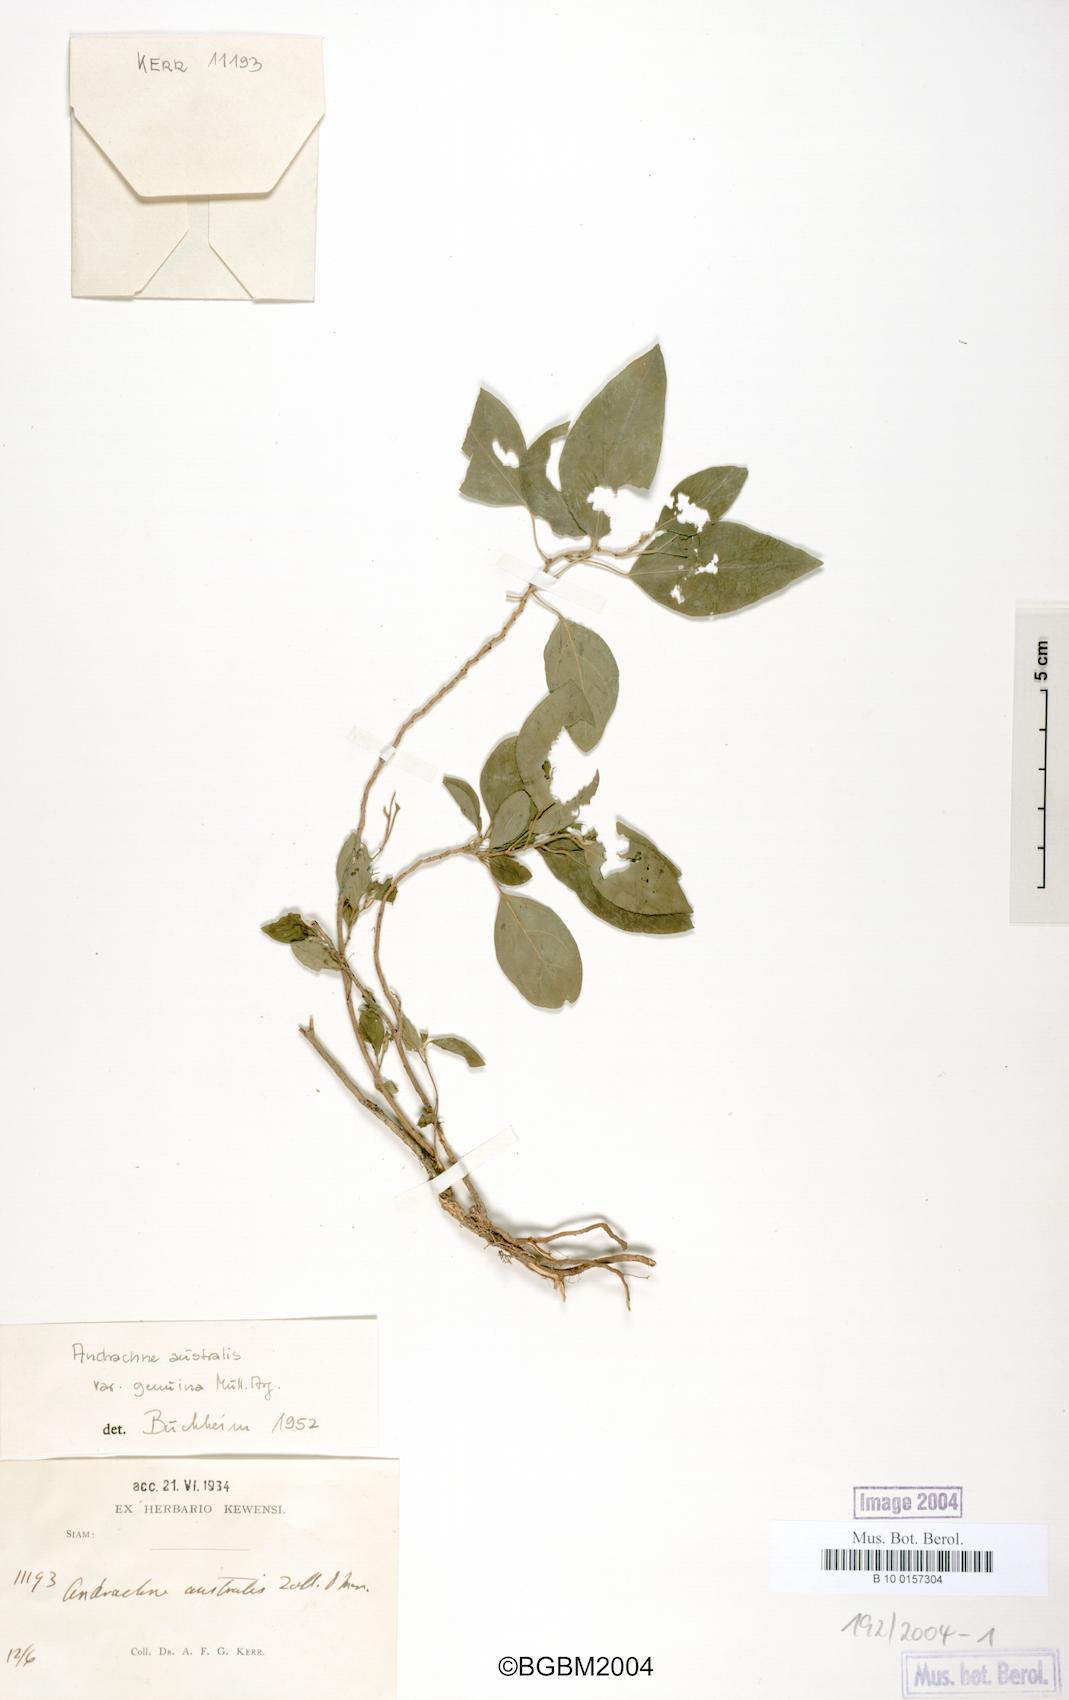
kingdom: Plantae
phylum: Tracheophyta
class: Magnoliopsida
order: Malpighiales
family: Phyllanthaceae
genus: Leptopus
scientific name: Leptopus australis
